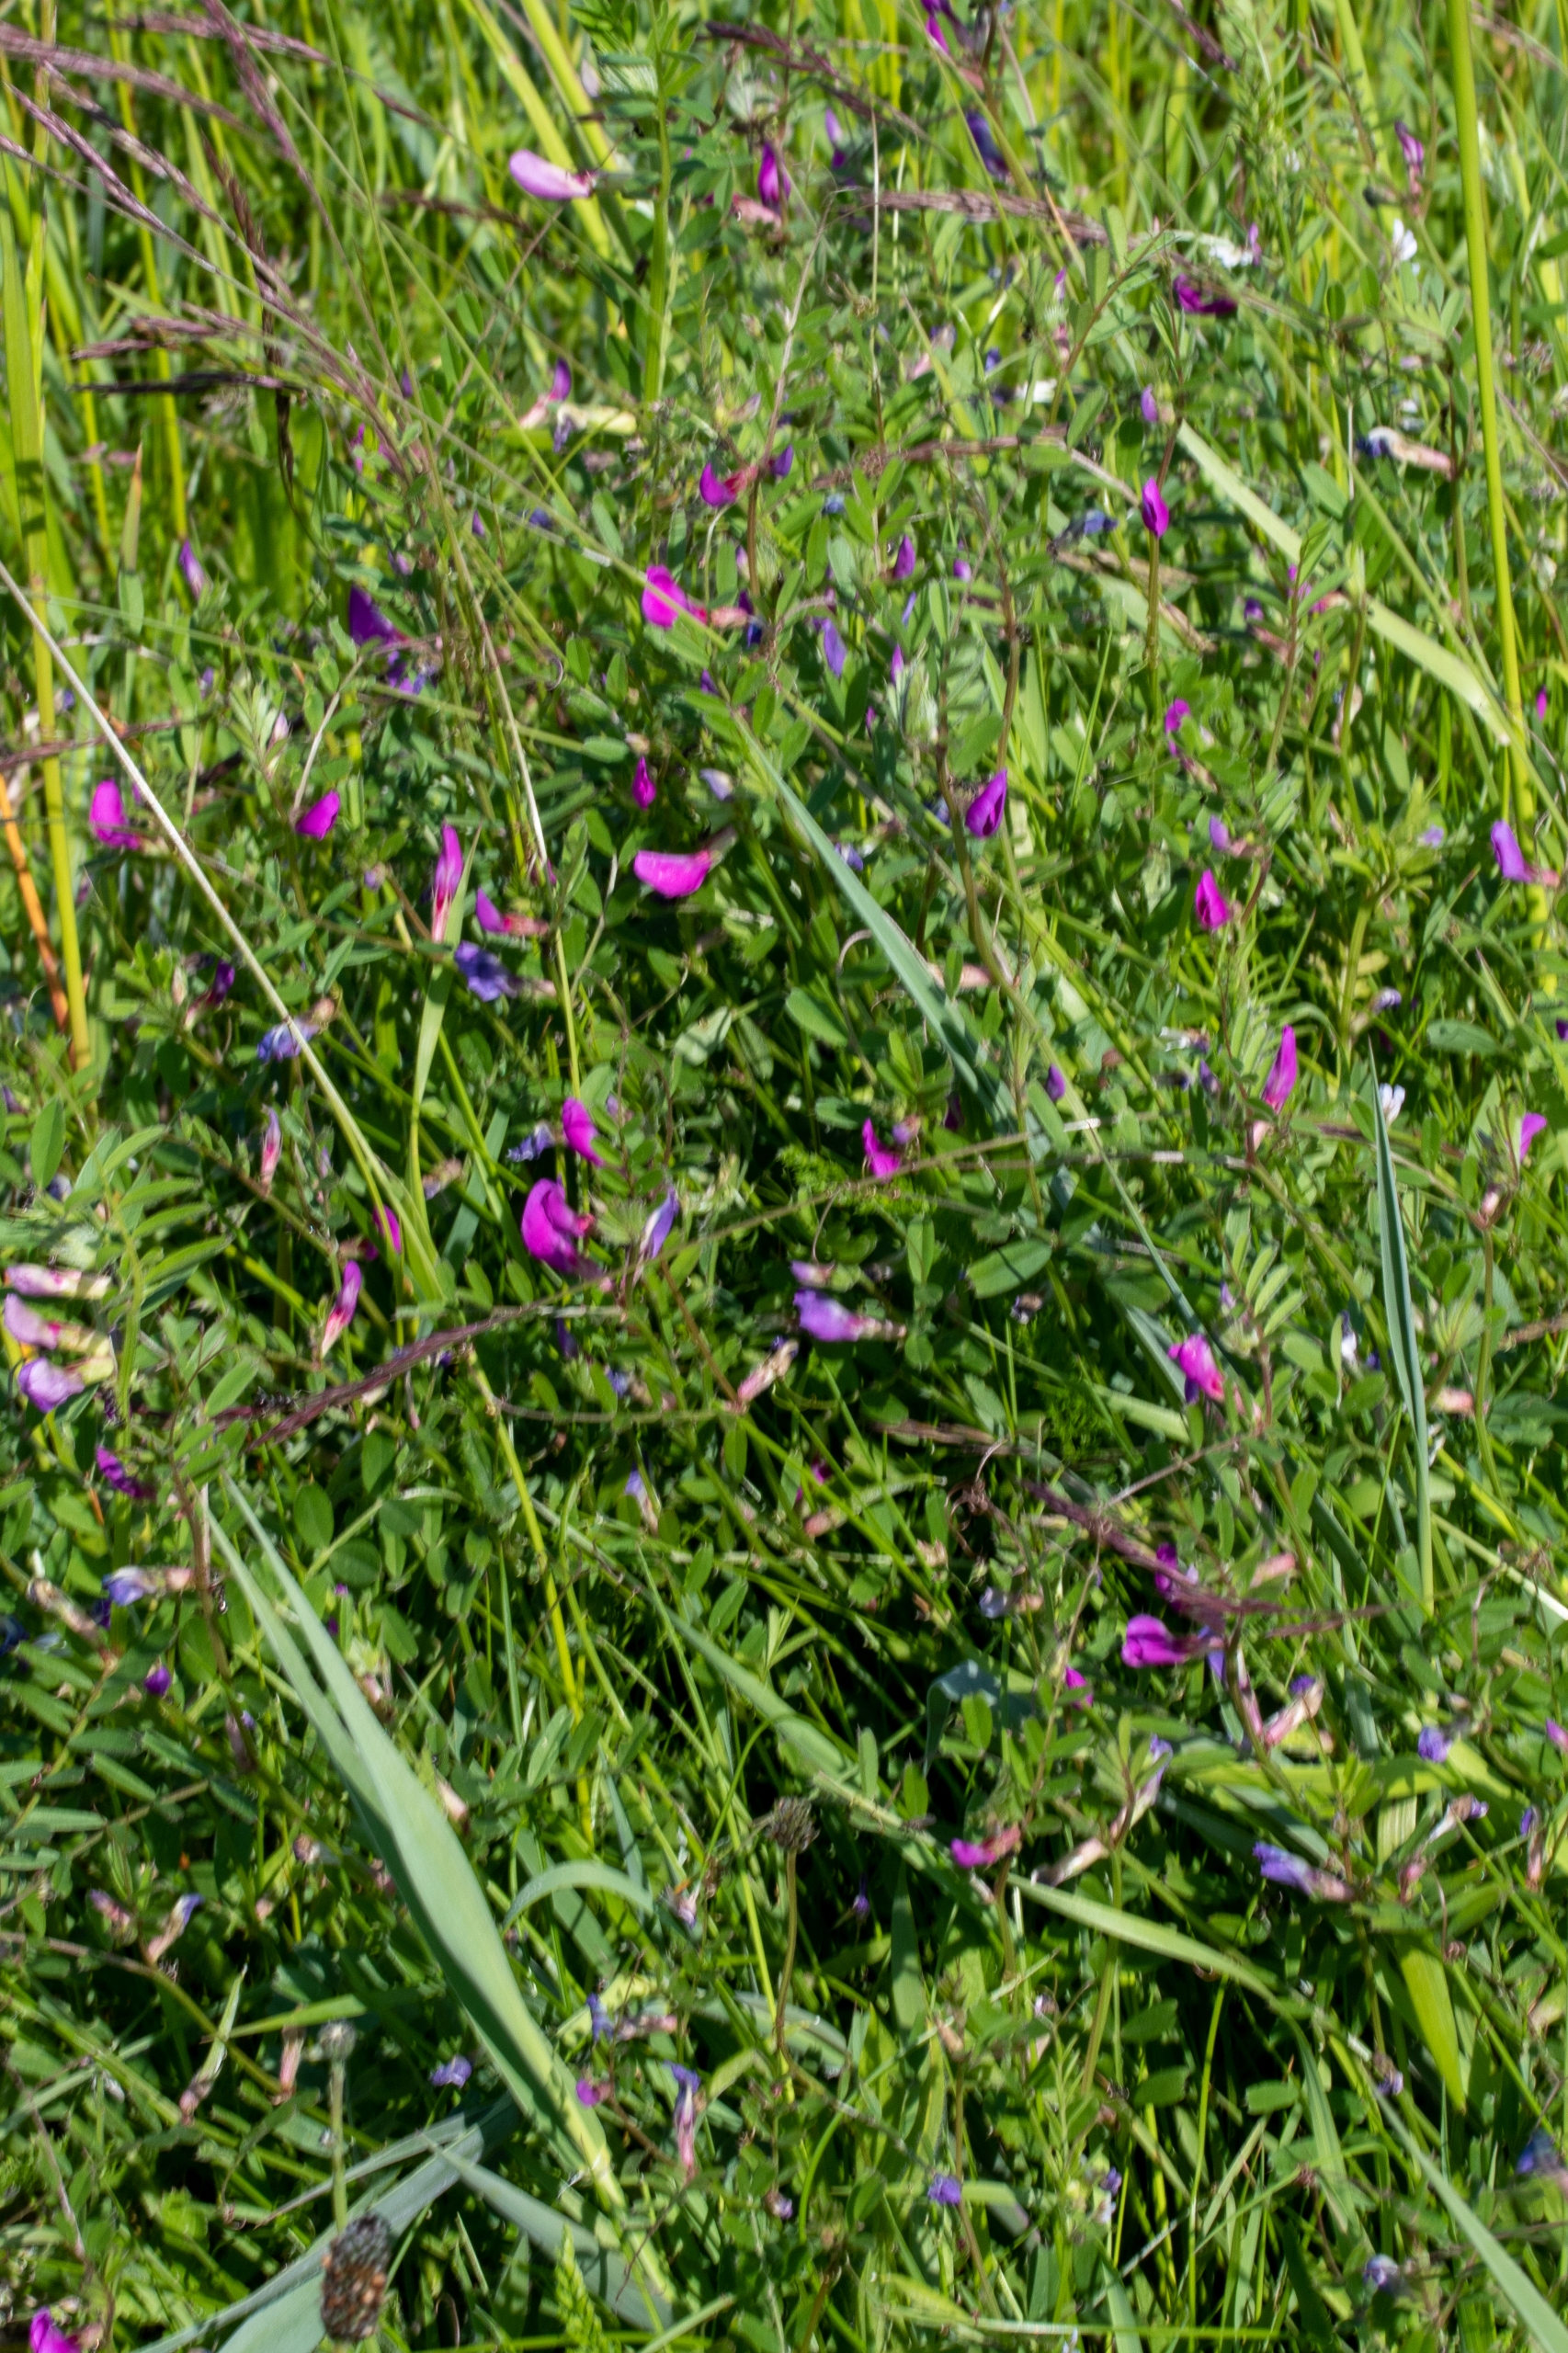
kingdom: Plantae
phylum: Tracheophyta
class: Magnoliopsida
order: Fabales
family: Fabaceae
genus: Vicia
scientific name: Vicia sativa
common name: Foder-vikke
